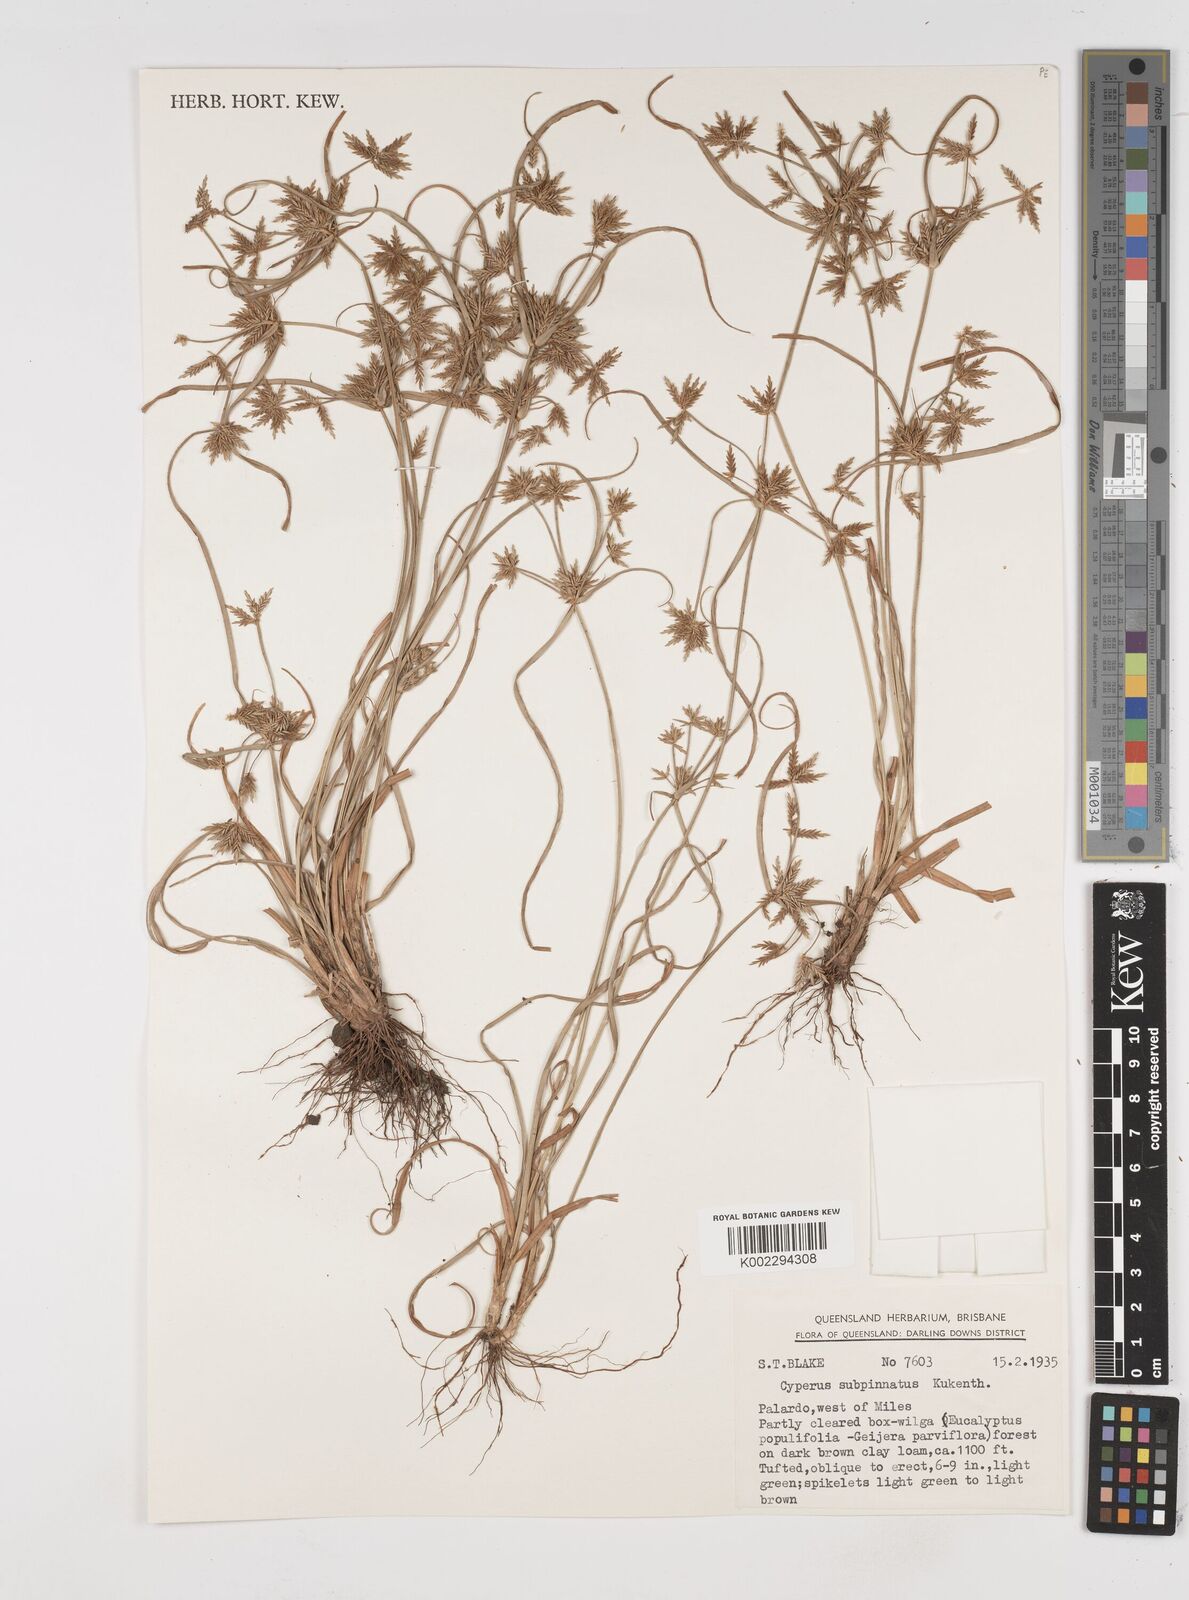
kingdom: Plantae
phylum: Tracheophyta
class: Liliopsida
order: Poales
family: Cyperaceae
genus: Cyperus
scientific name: Cyperus rigidellus
